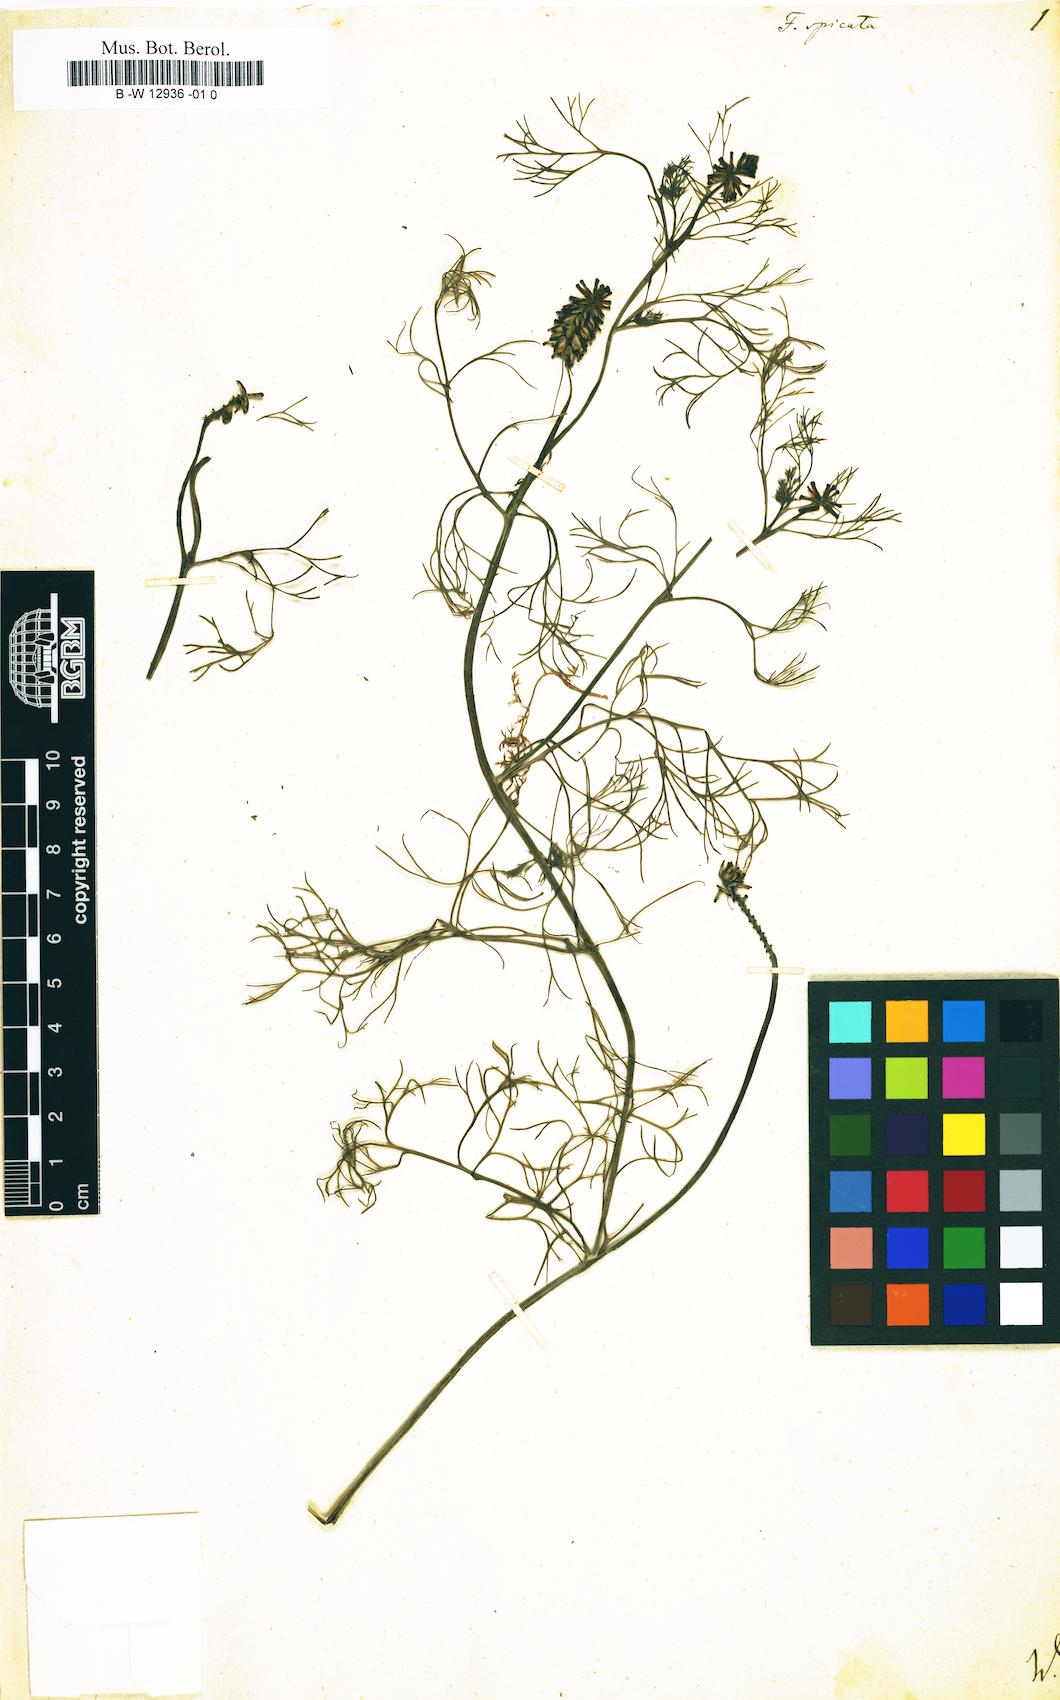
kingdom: Plantae
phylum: Tracheophyta
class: Magnoliopsida
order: Ranunculales
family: Papaveraceae
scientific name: Papaveraceae
